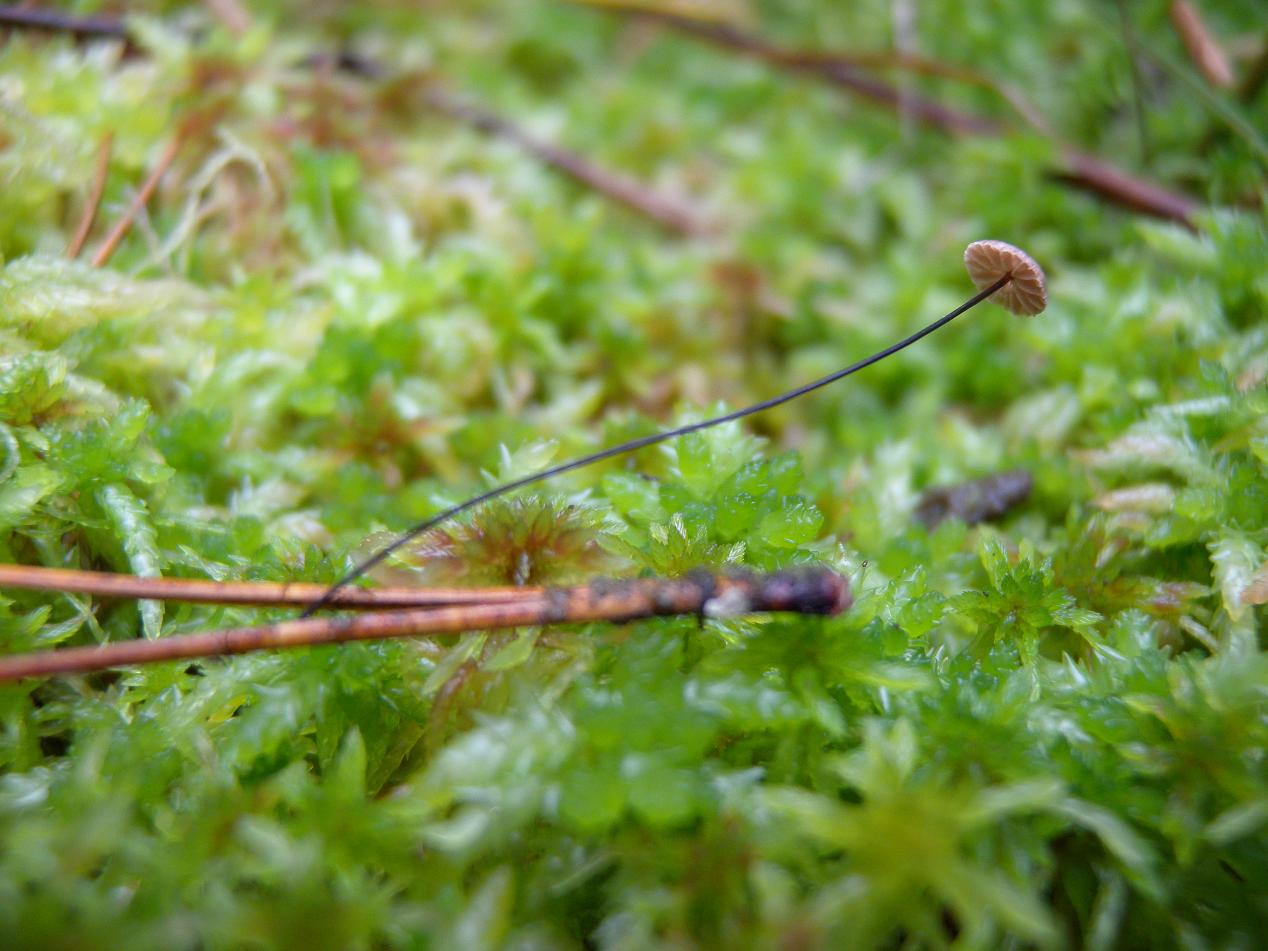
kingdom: Fungi
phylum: Basidiomycota
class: Agaricomycetes
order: Agaricales
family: Omphalotaceae
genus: Gymnopus
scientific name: Gymnopus androsaceus
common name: trådstokket fladhat
